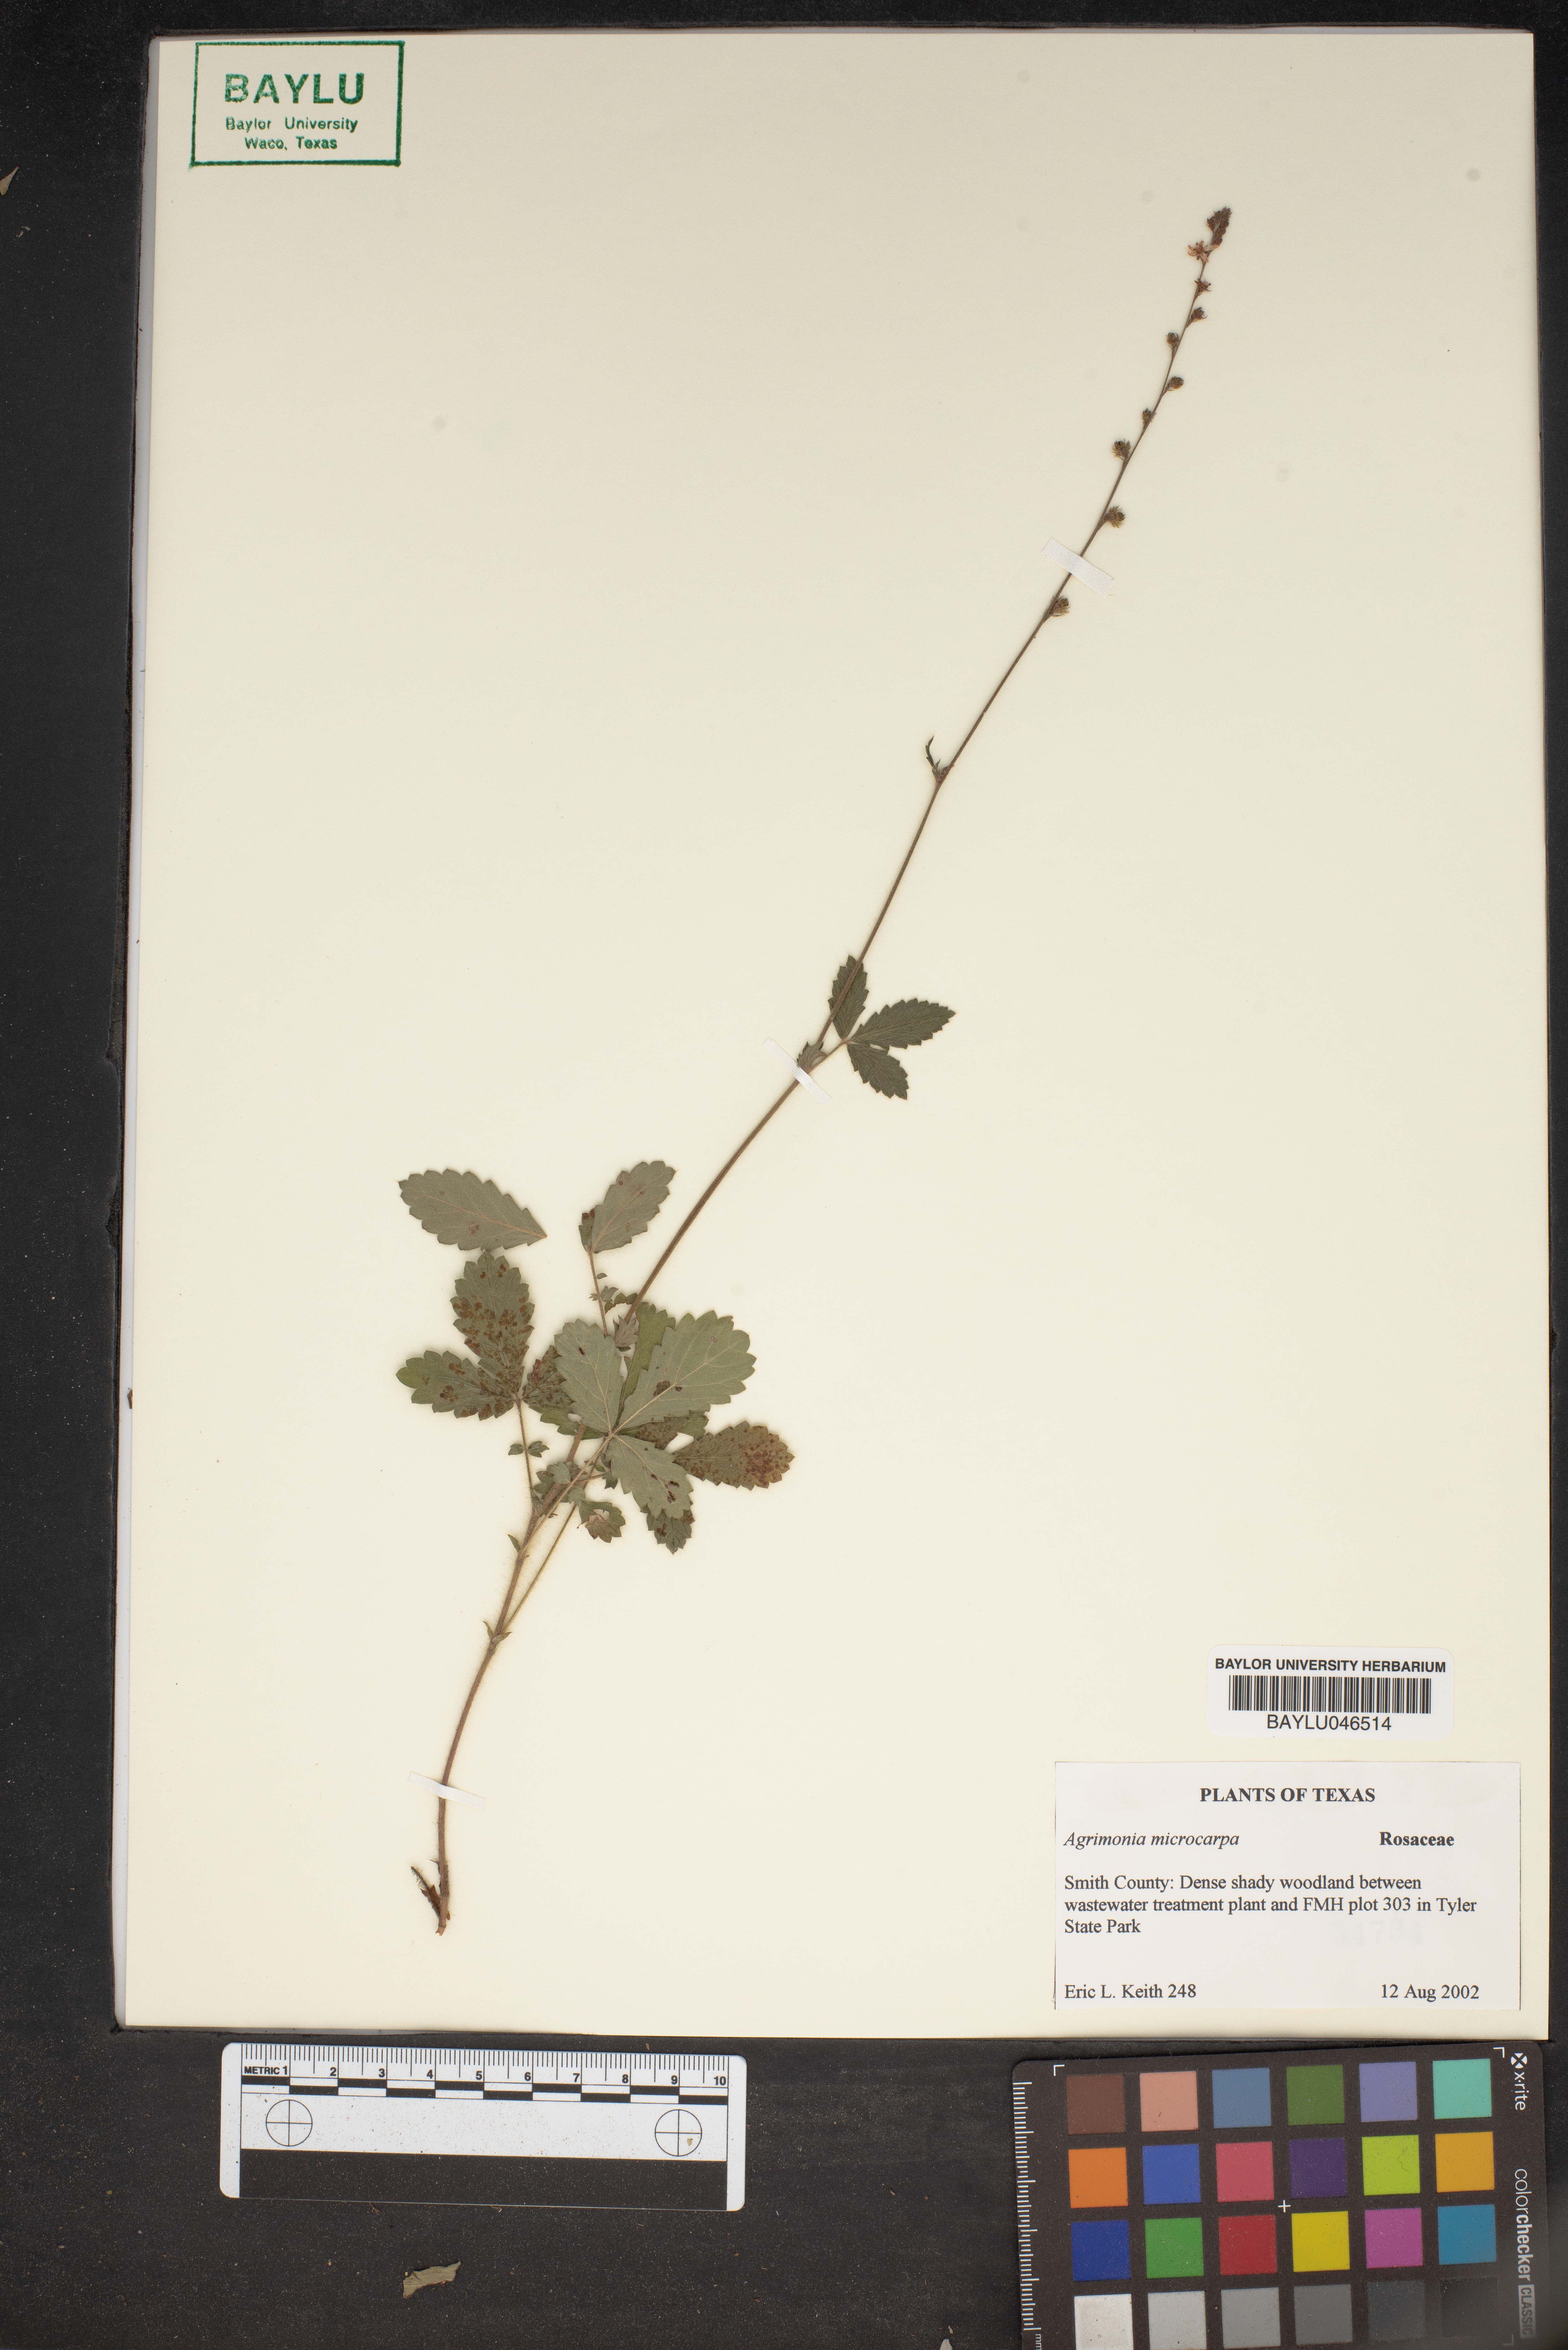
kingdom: Plantae
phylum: Tracheophyta
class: Magnoliopsida
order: Rosales
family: Rosaceae
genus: Agrimonia
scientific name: Agrimonia microcarpa
